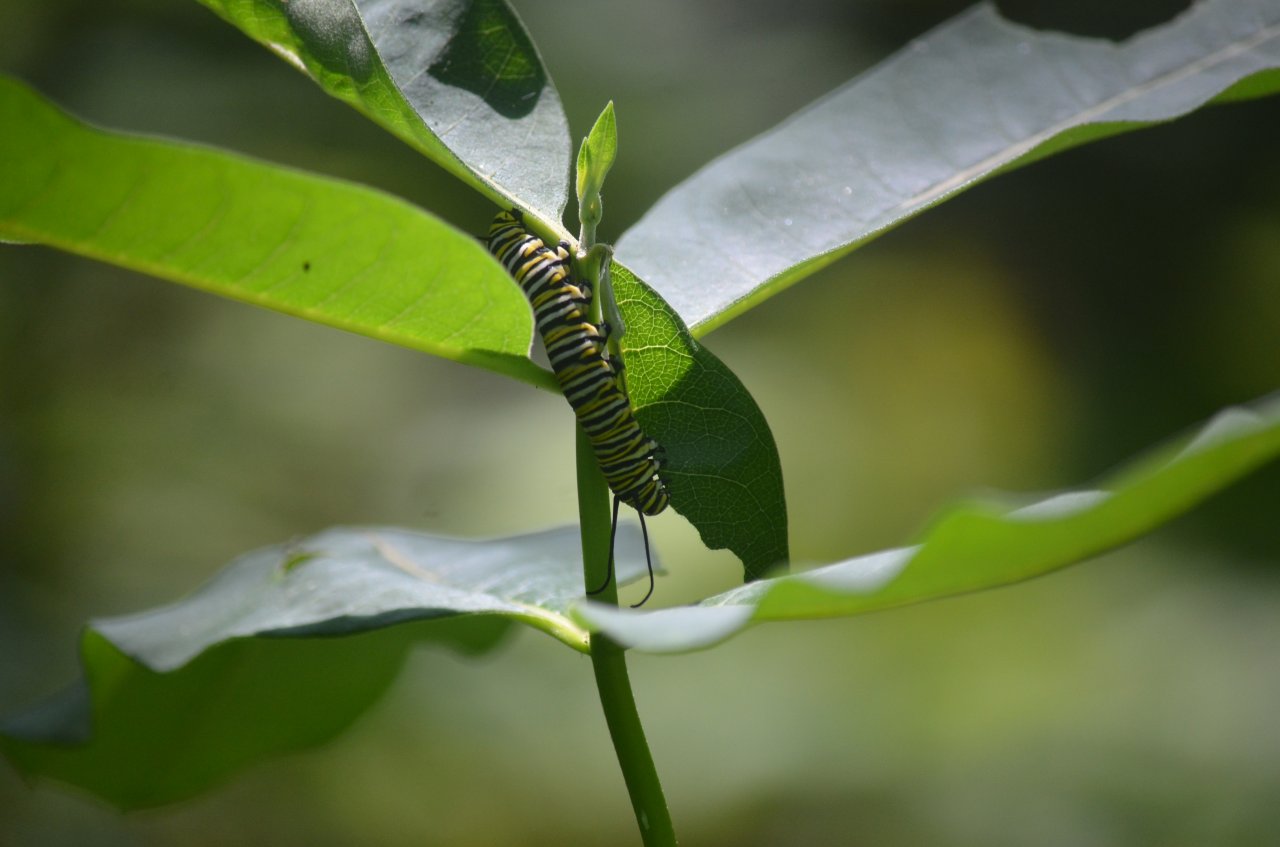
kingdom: Animalia
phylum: Arthropoda
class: Insecta
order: Lepidoptera
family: Nymphalidae
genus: Danaus
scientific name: Danaus plexippus
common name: Monarch
